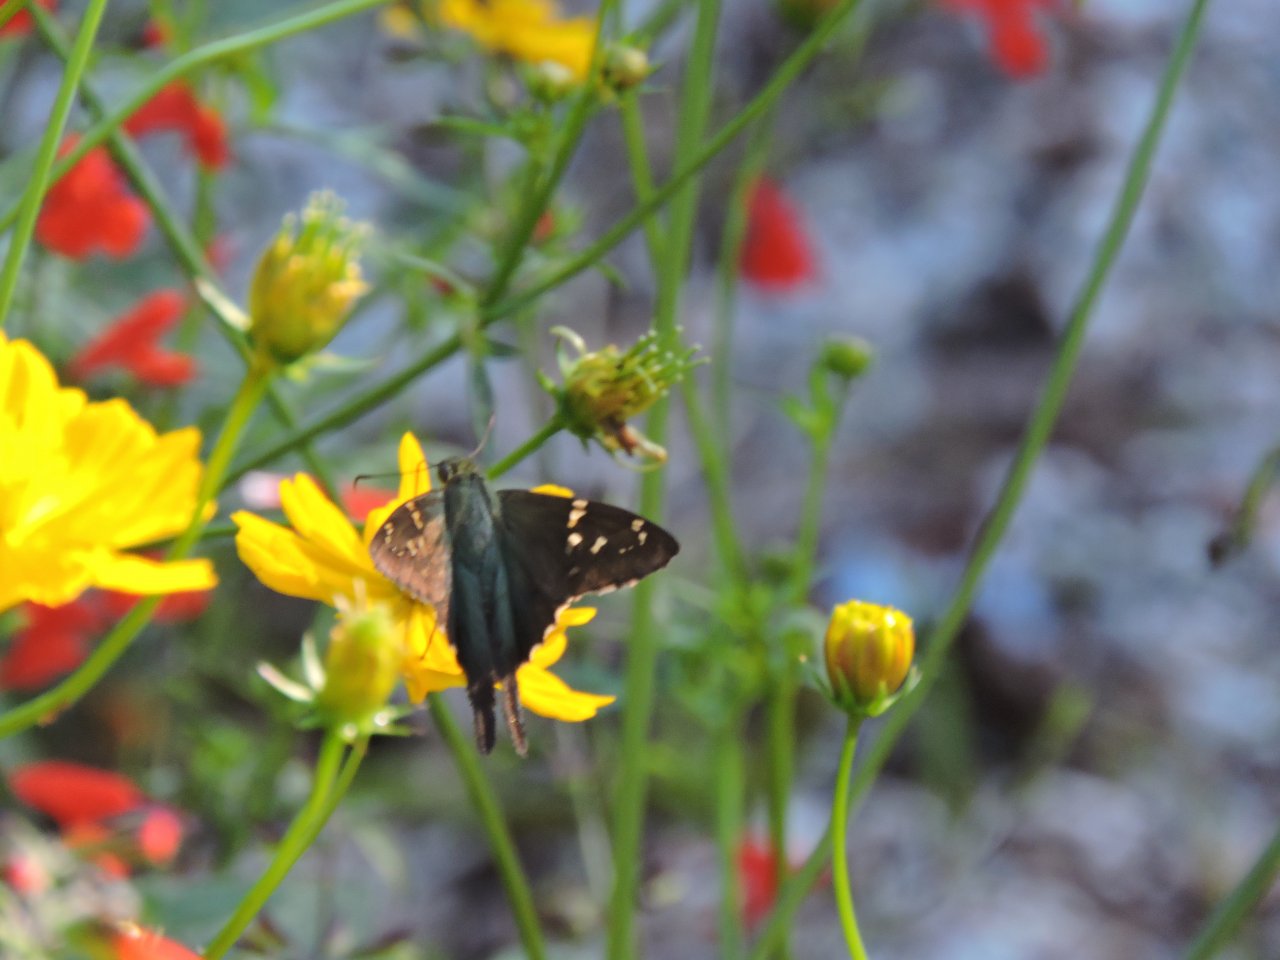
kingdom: Animalia
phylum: Arthropoda
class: Insecta
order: Lepidoptera
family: Hesperiidae
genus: Urbanus
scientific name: Urbanus proteus
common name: Long-tailed Skipper
